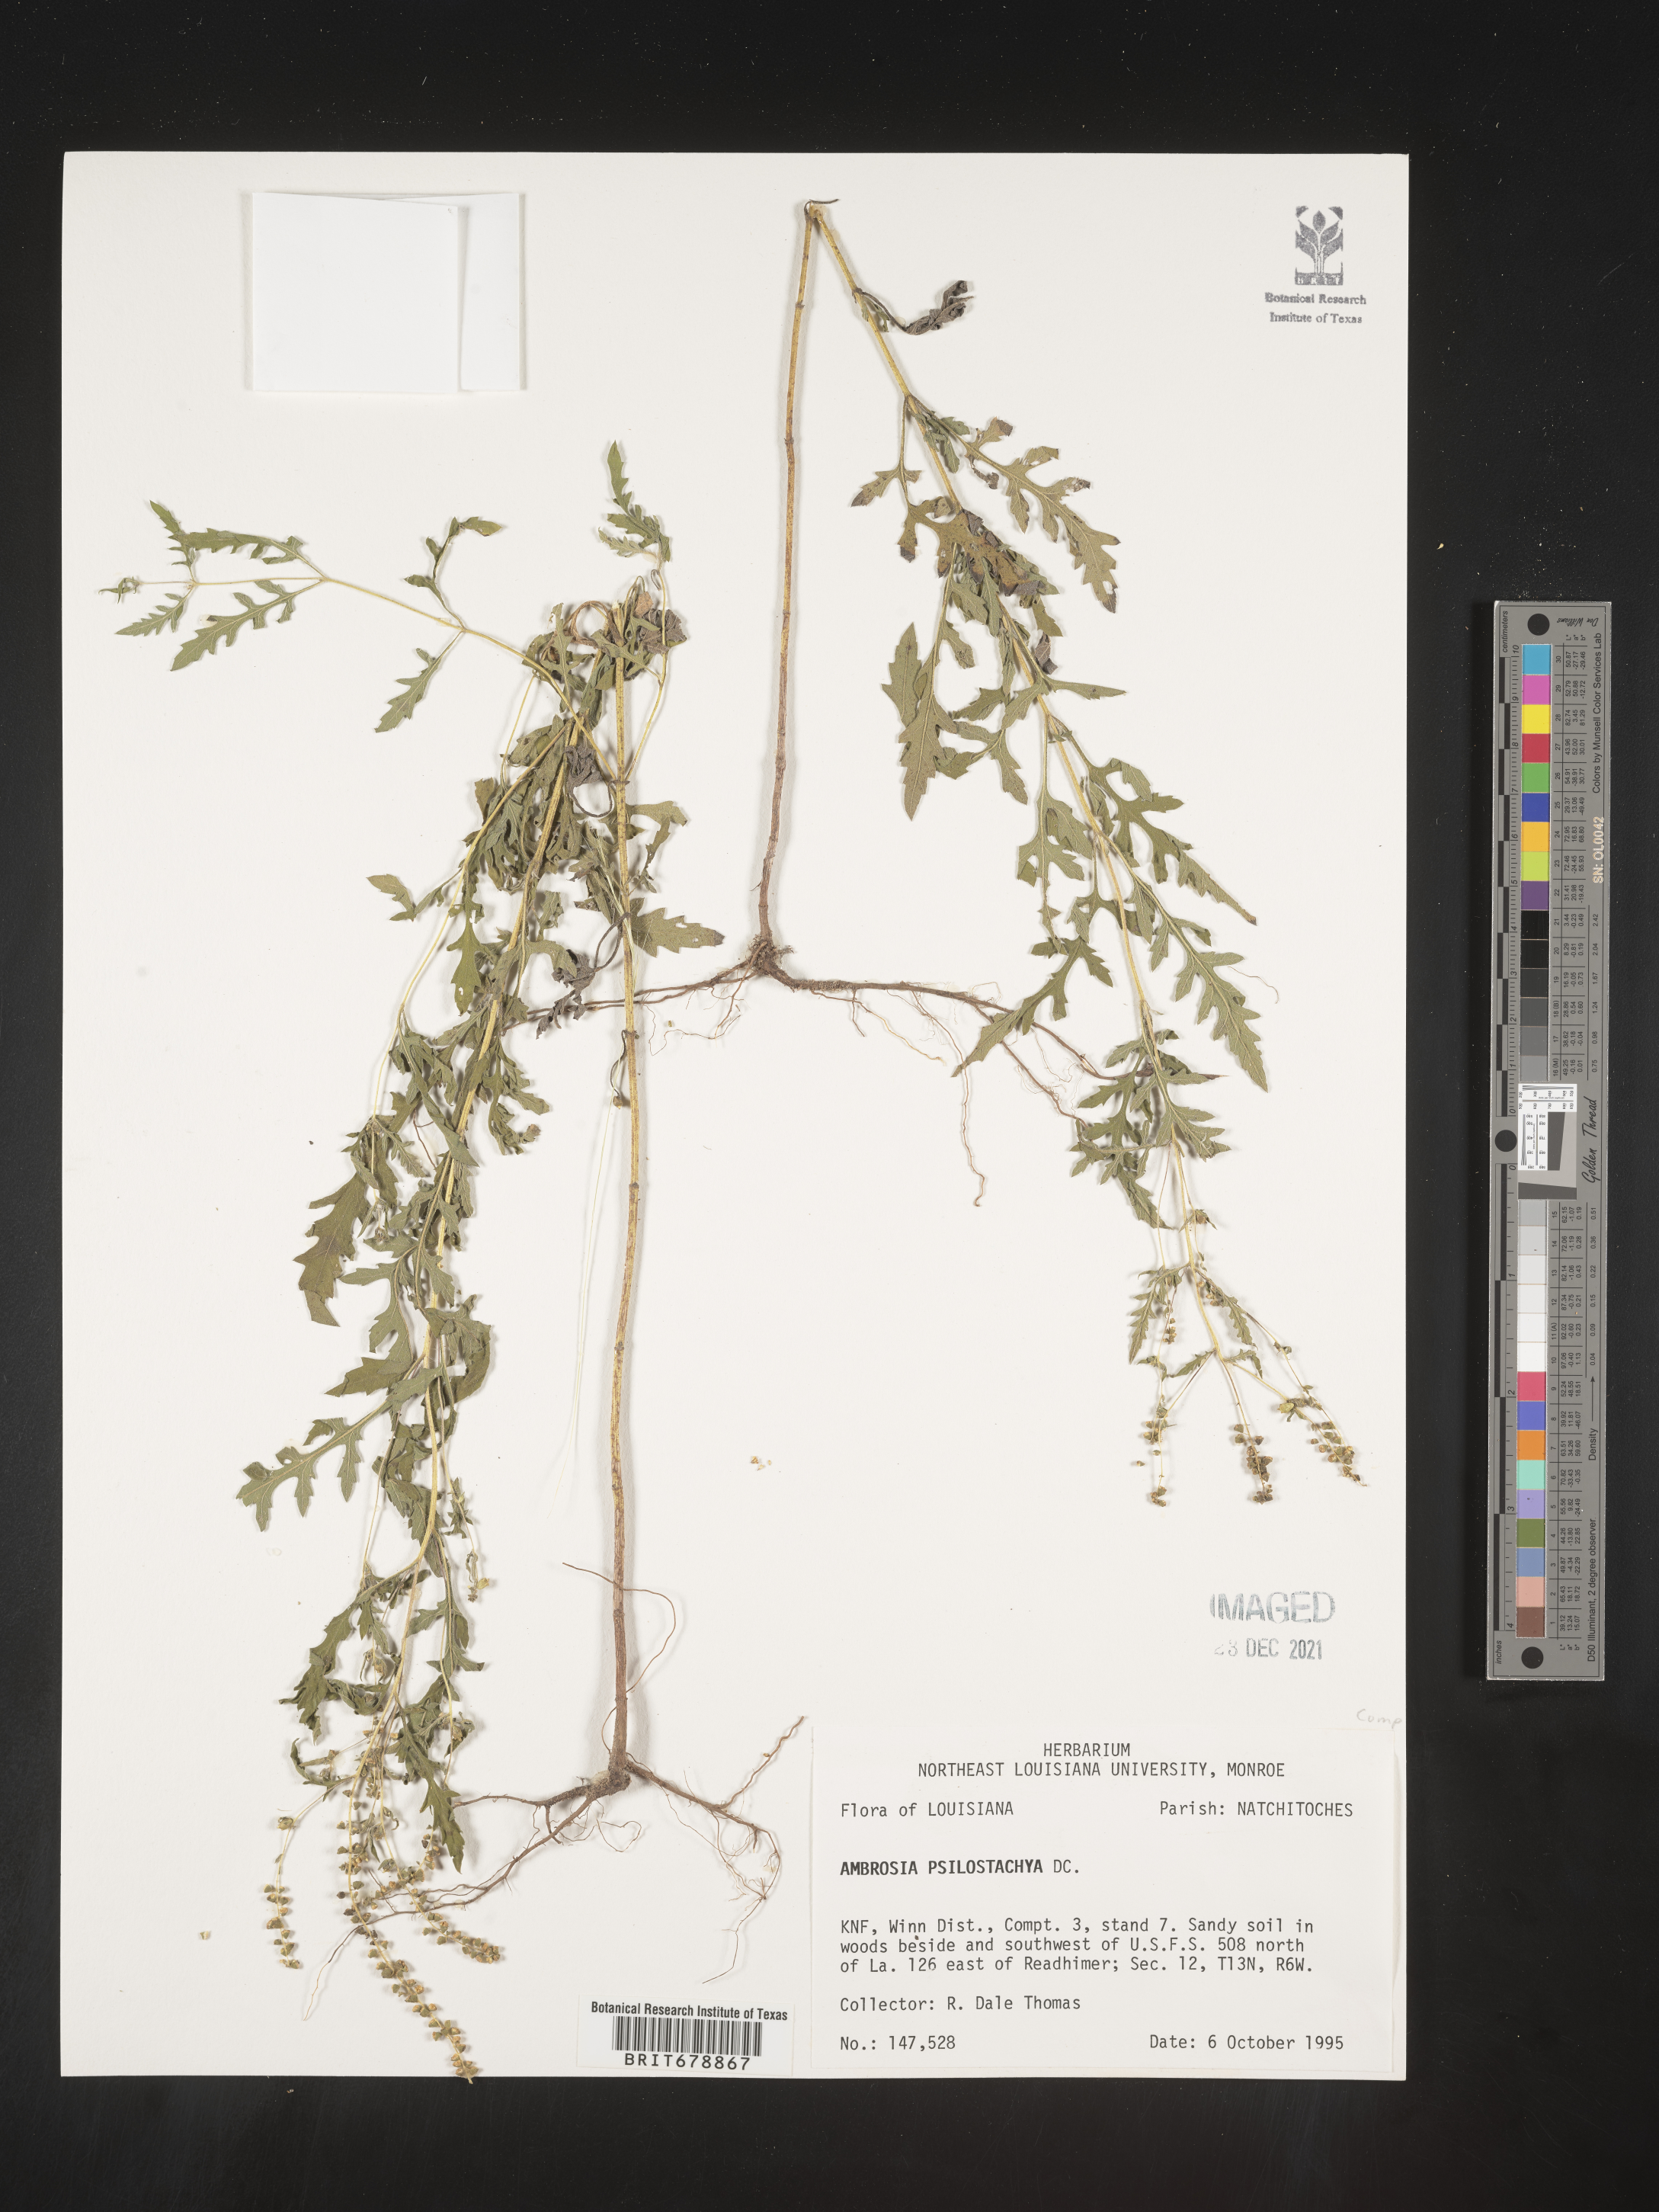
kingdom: Plantae
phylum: Tracheophyta
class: Magnoliopsida
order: Asterales
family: Asteraceae
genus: Ambrosia
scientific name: Ambrosia psilostachya
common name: Perennial ragweed
